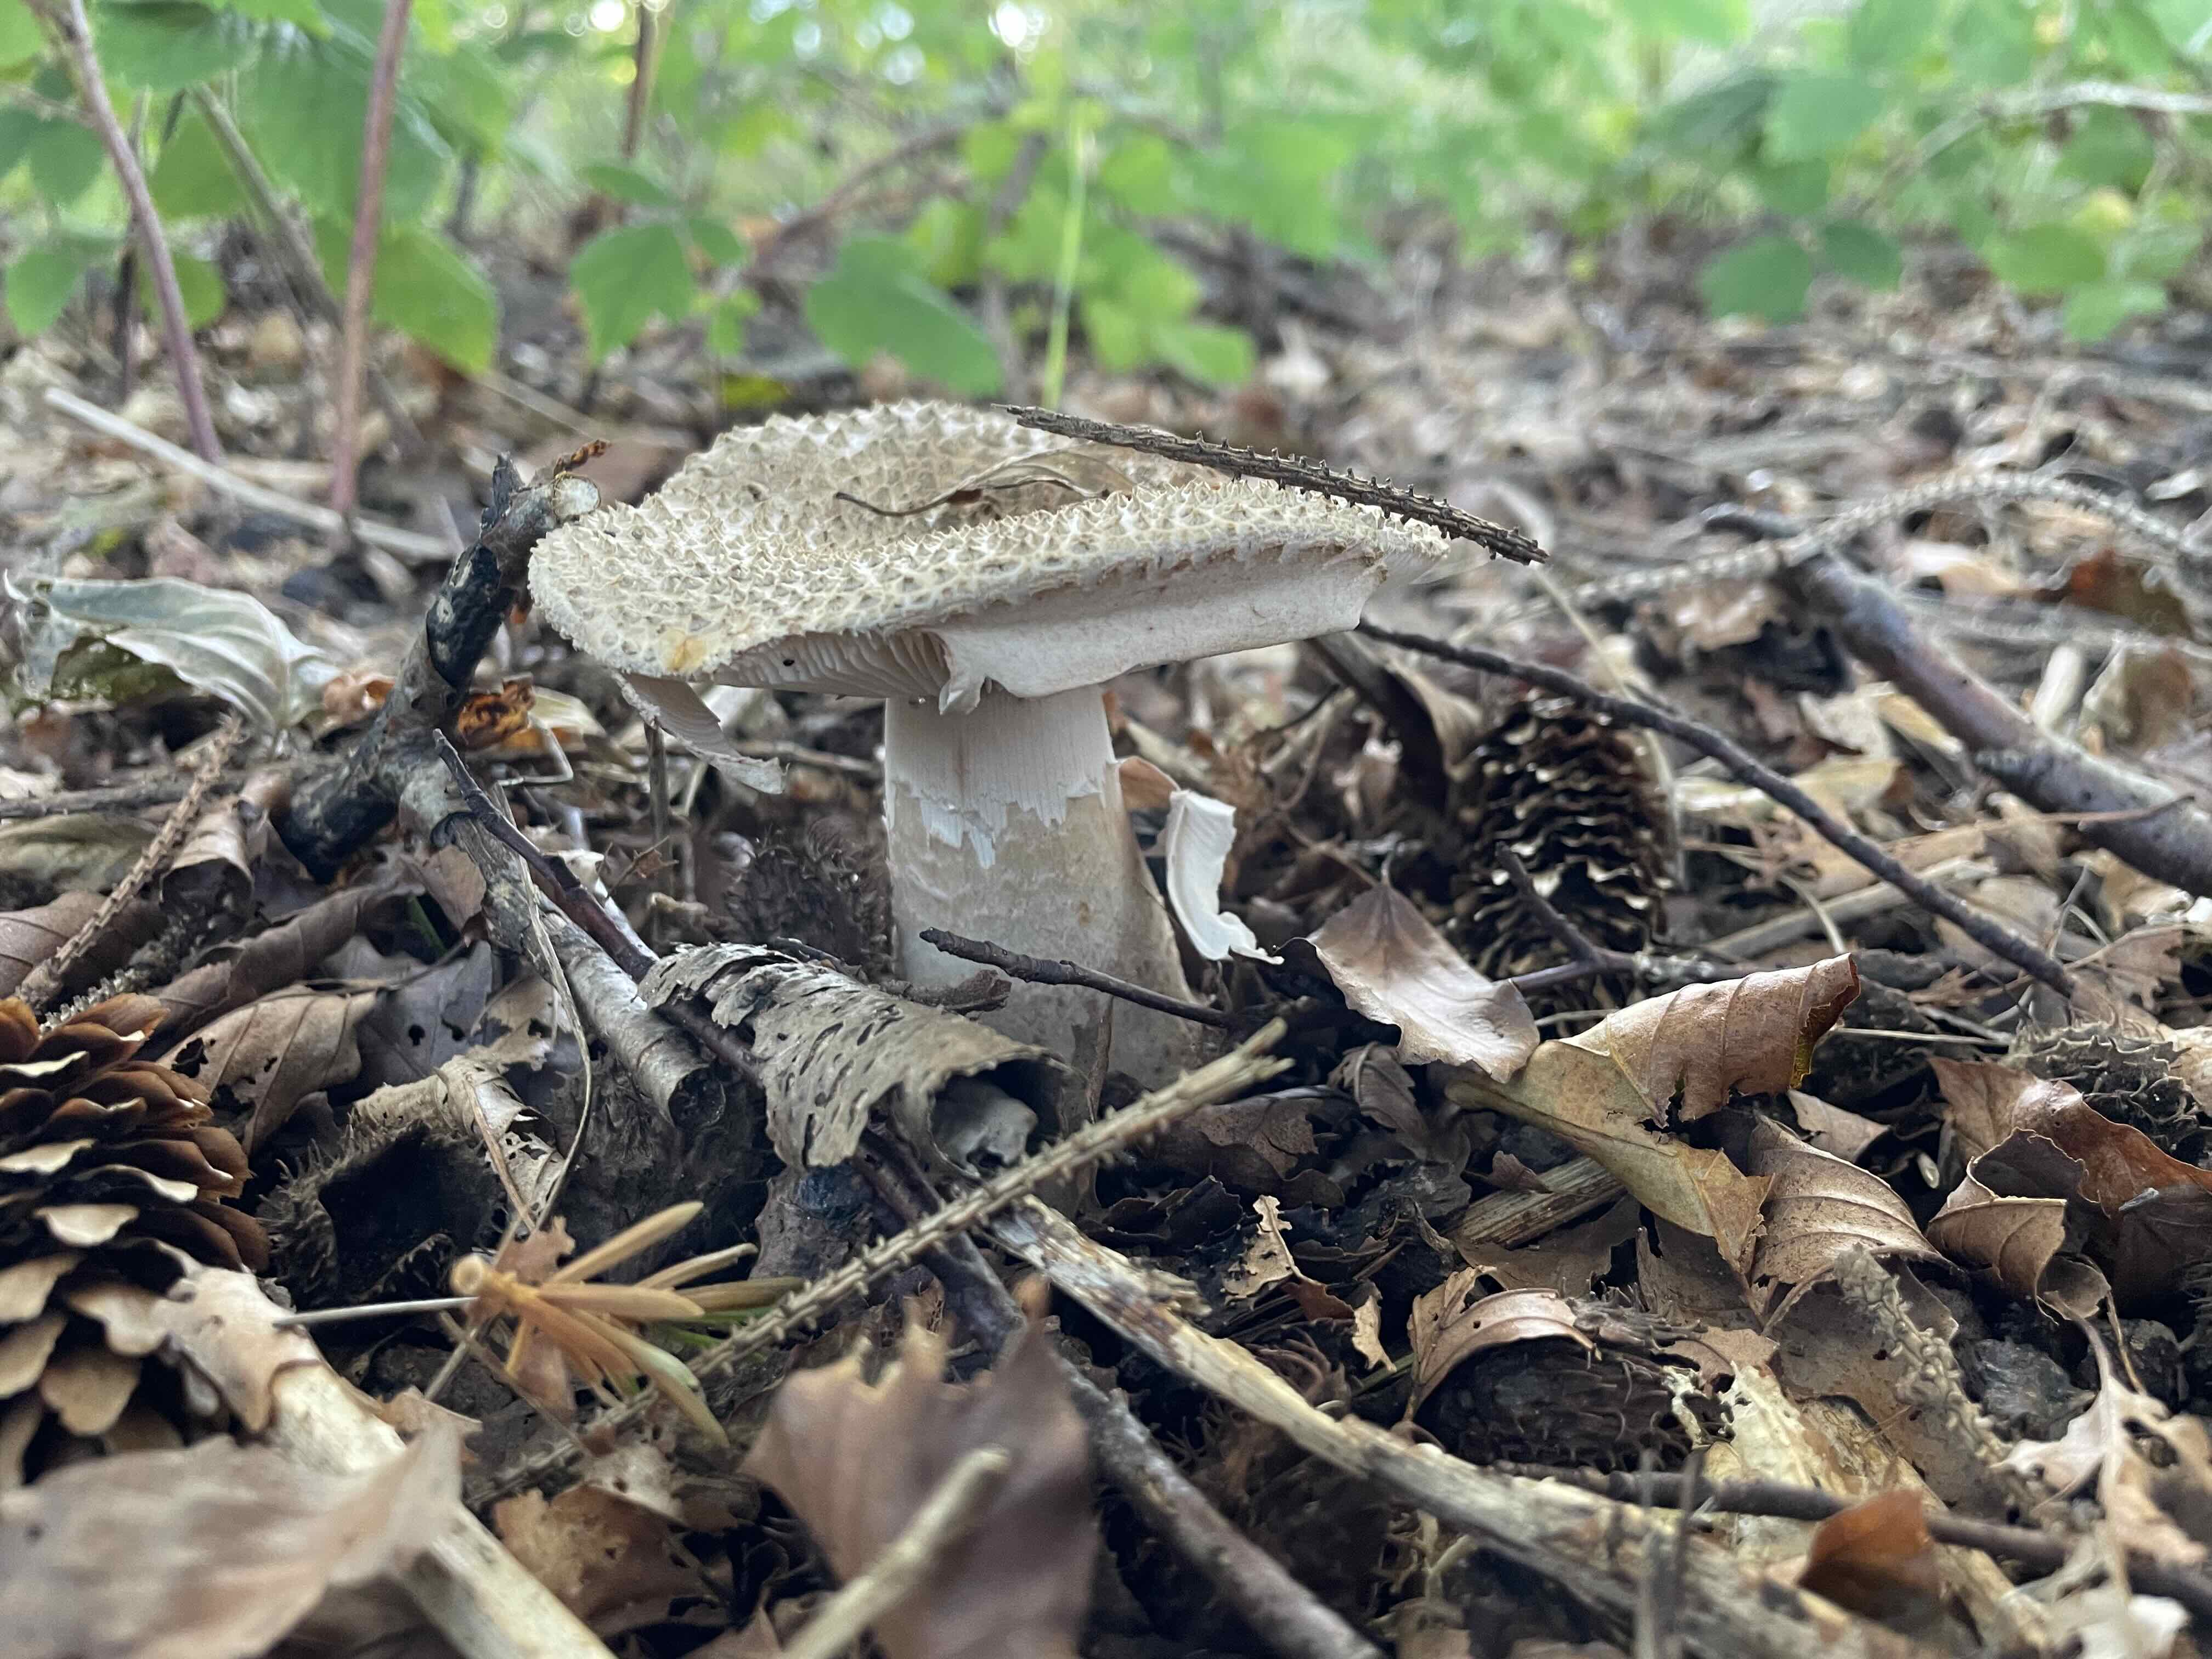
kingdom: Fungi
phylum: Basidiomycota
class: Agaricomycetes
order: Agaricales
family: Amanitaceae
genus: Amanita
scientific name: Amanita rubescens
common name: rødmende fluesvamp
